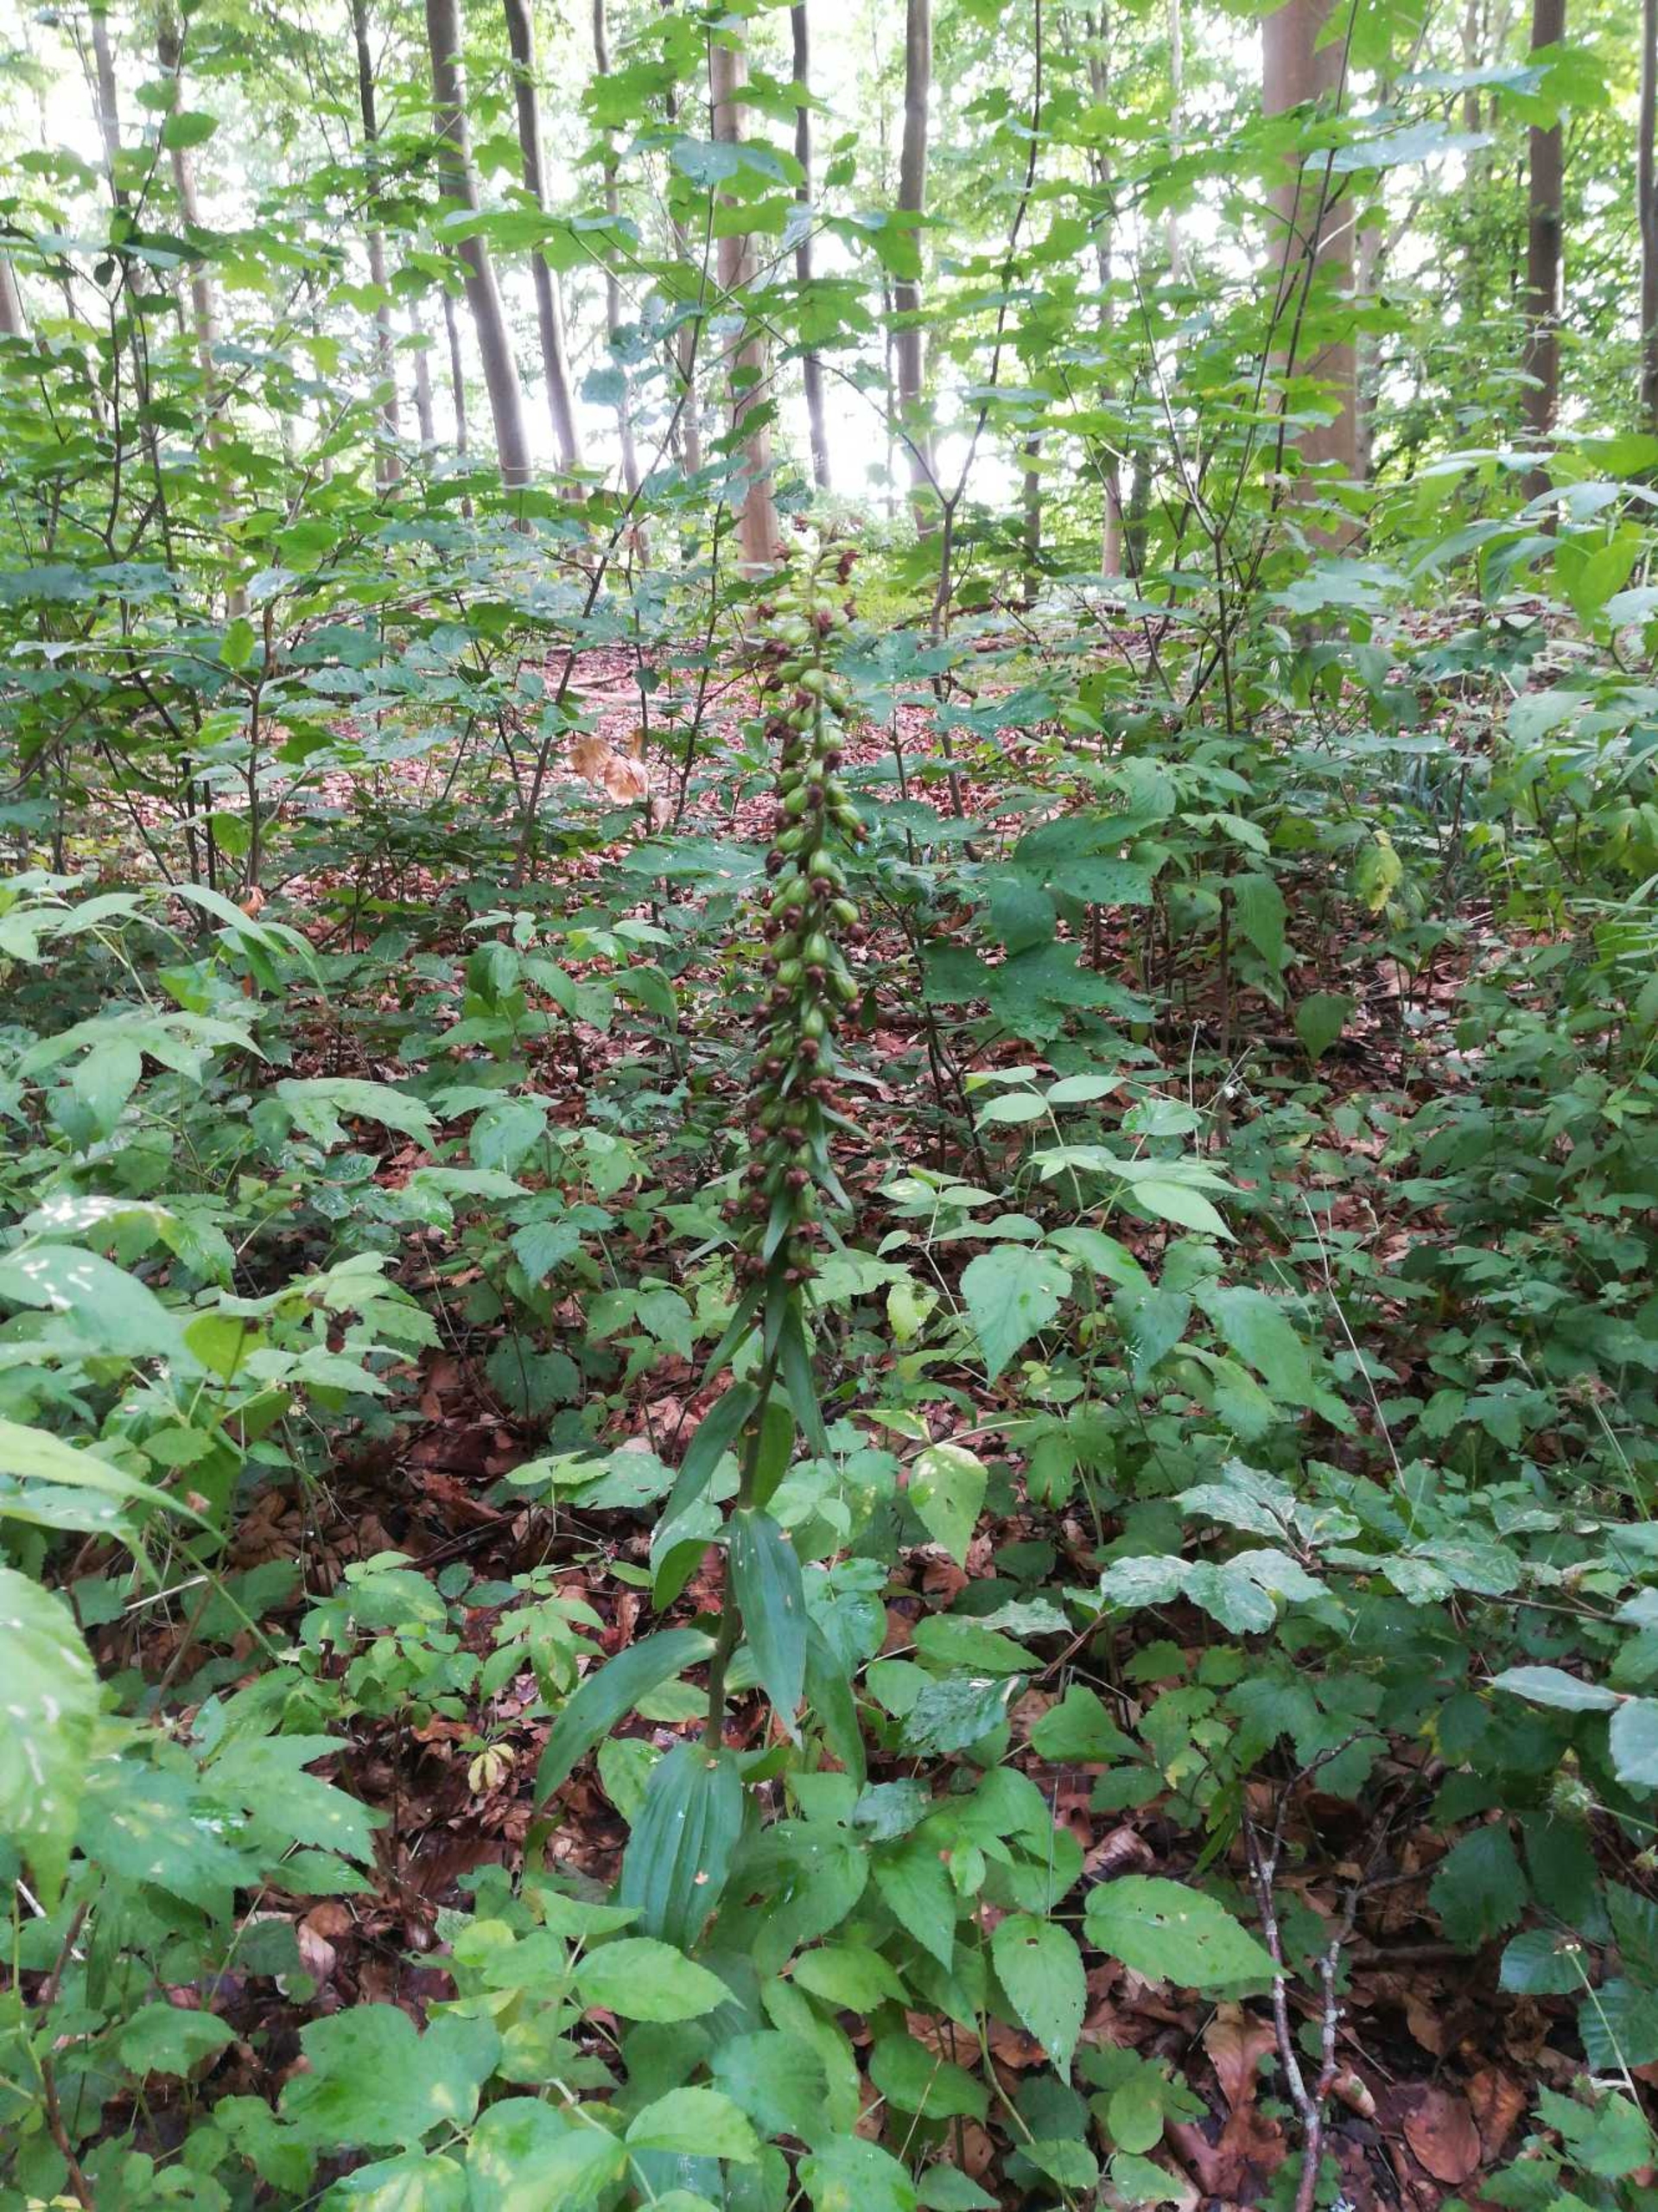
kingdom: Plantae
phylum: Tracheophyta
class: Liliopsida
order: Asparagales
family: Orchidaceae
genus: Epipactis
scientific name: Epipactis helleborine
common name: Skov-hullæbe
